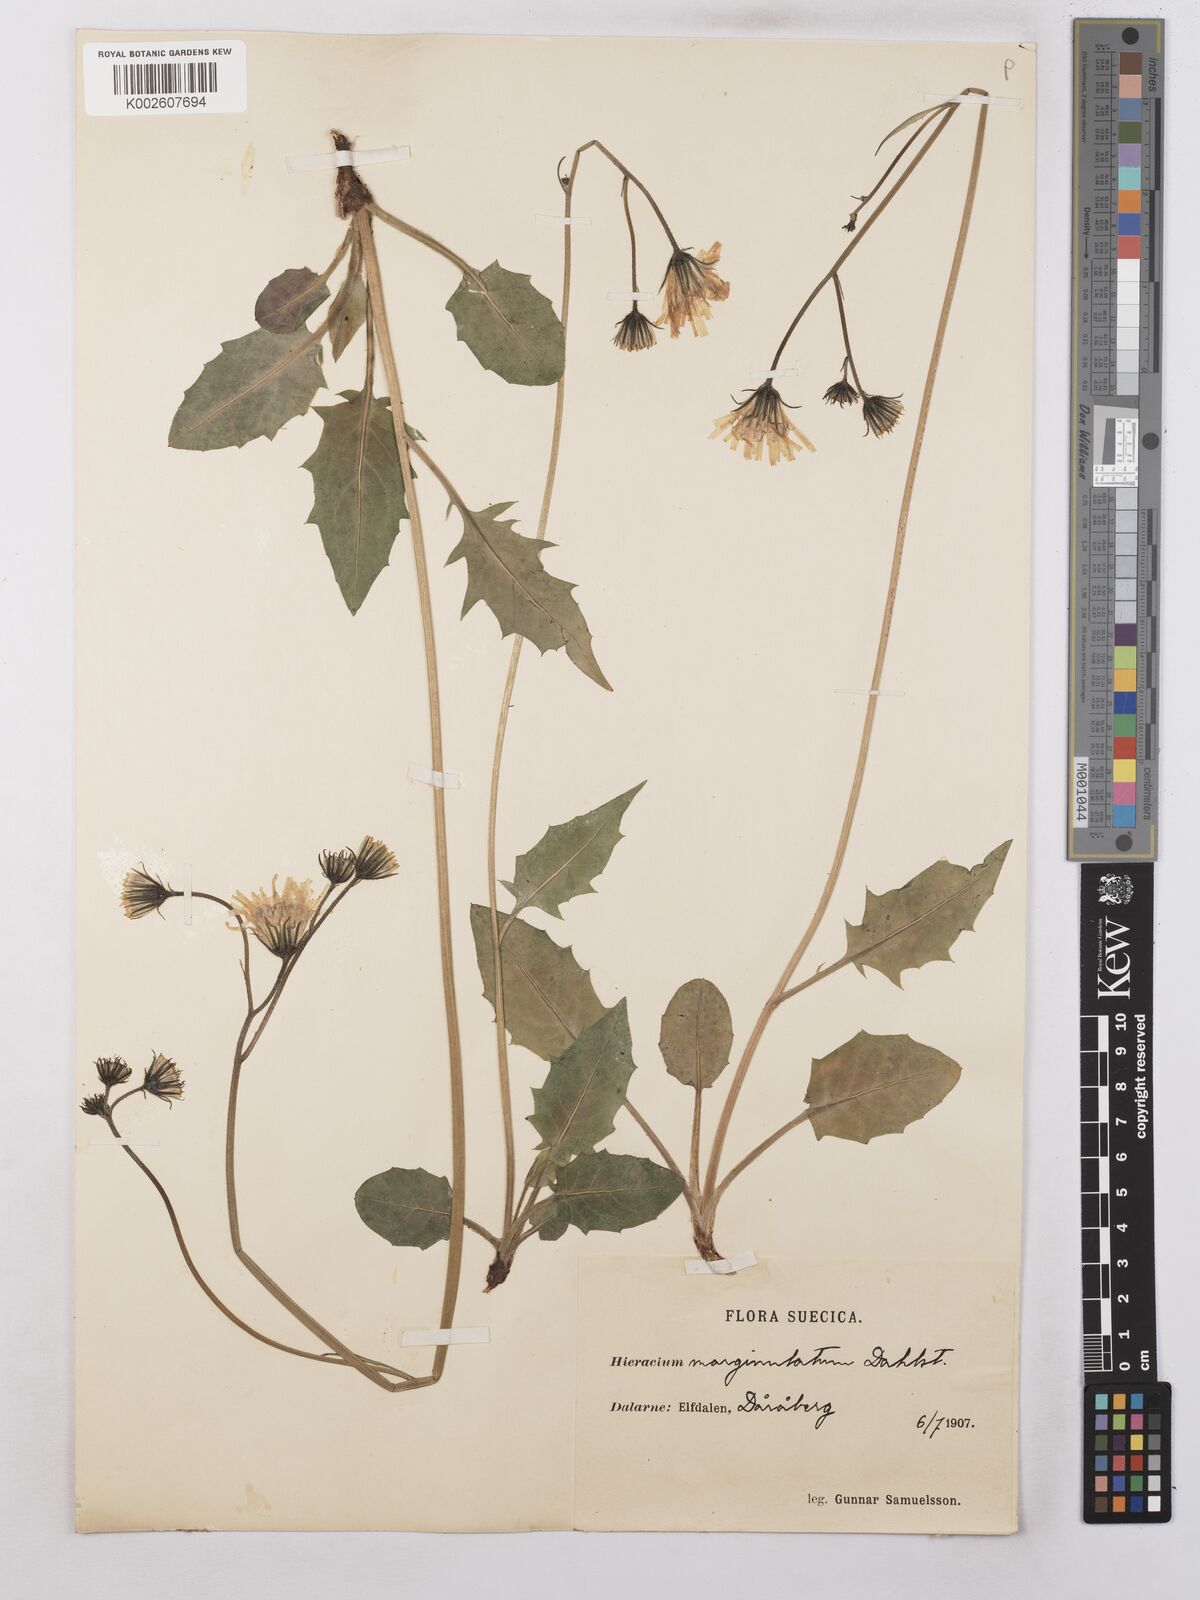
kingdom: Plantae
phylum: Tracheophyta
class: Magnoliopsida
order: Asterales
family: Asteraceae
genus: Hieracium
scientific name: Hieracium subramosum
